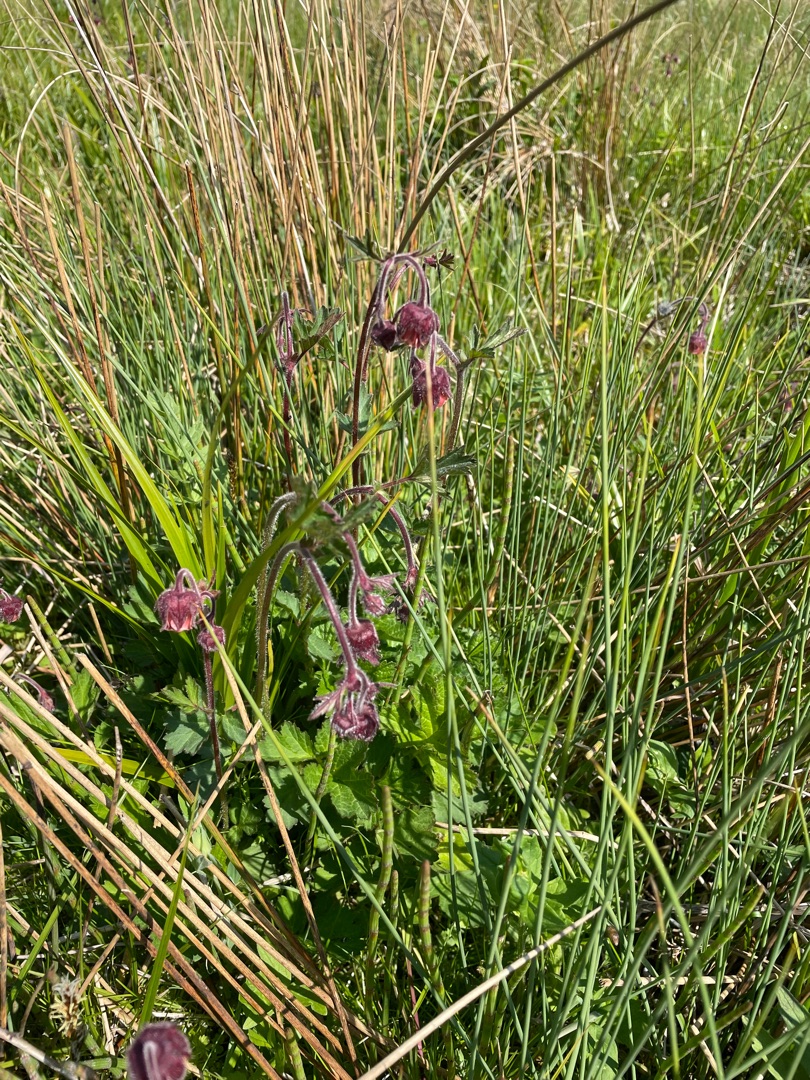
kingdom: Plantae
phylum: Tracheophyta
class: Magnoliopsida
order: Rosales
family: Rosaceae
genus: Geum
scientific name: Geum rivale
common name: Eng-nellikerod
